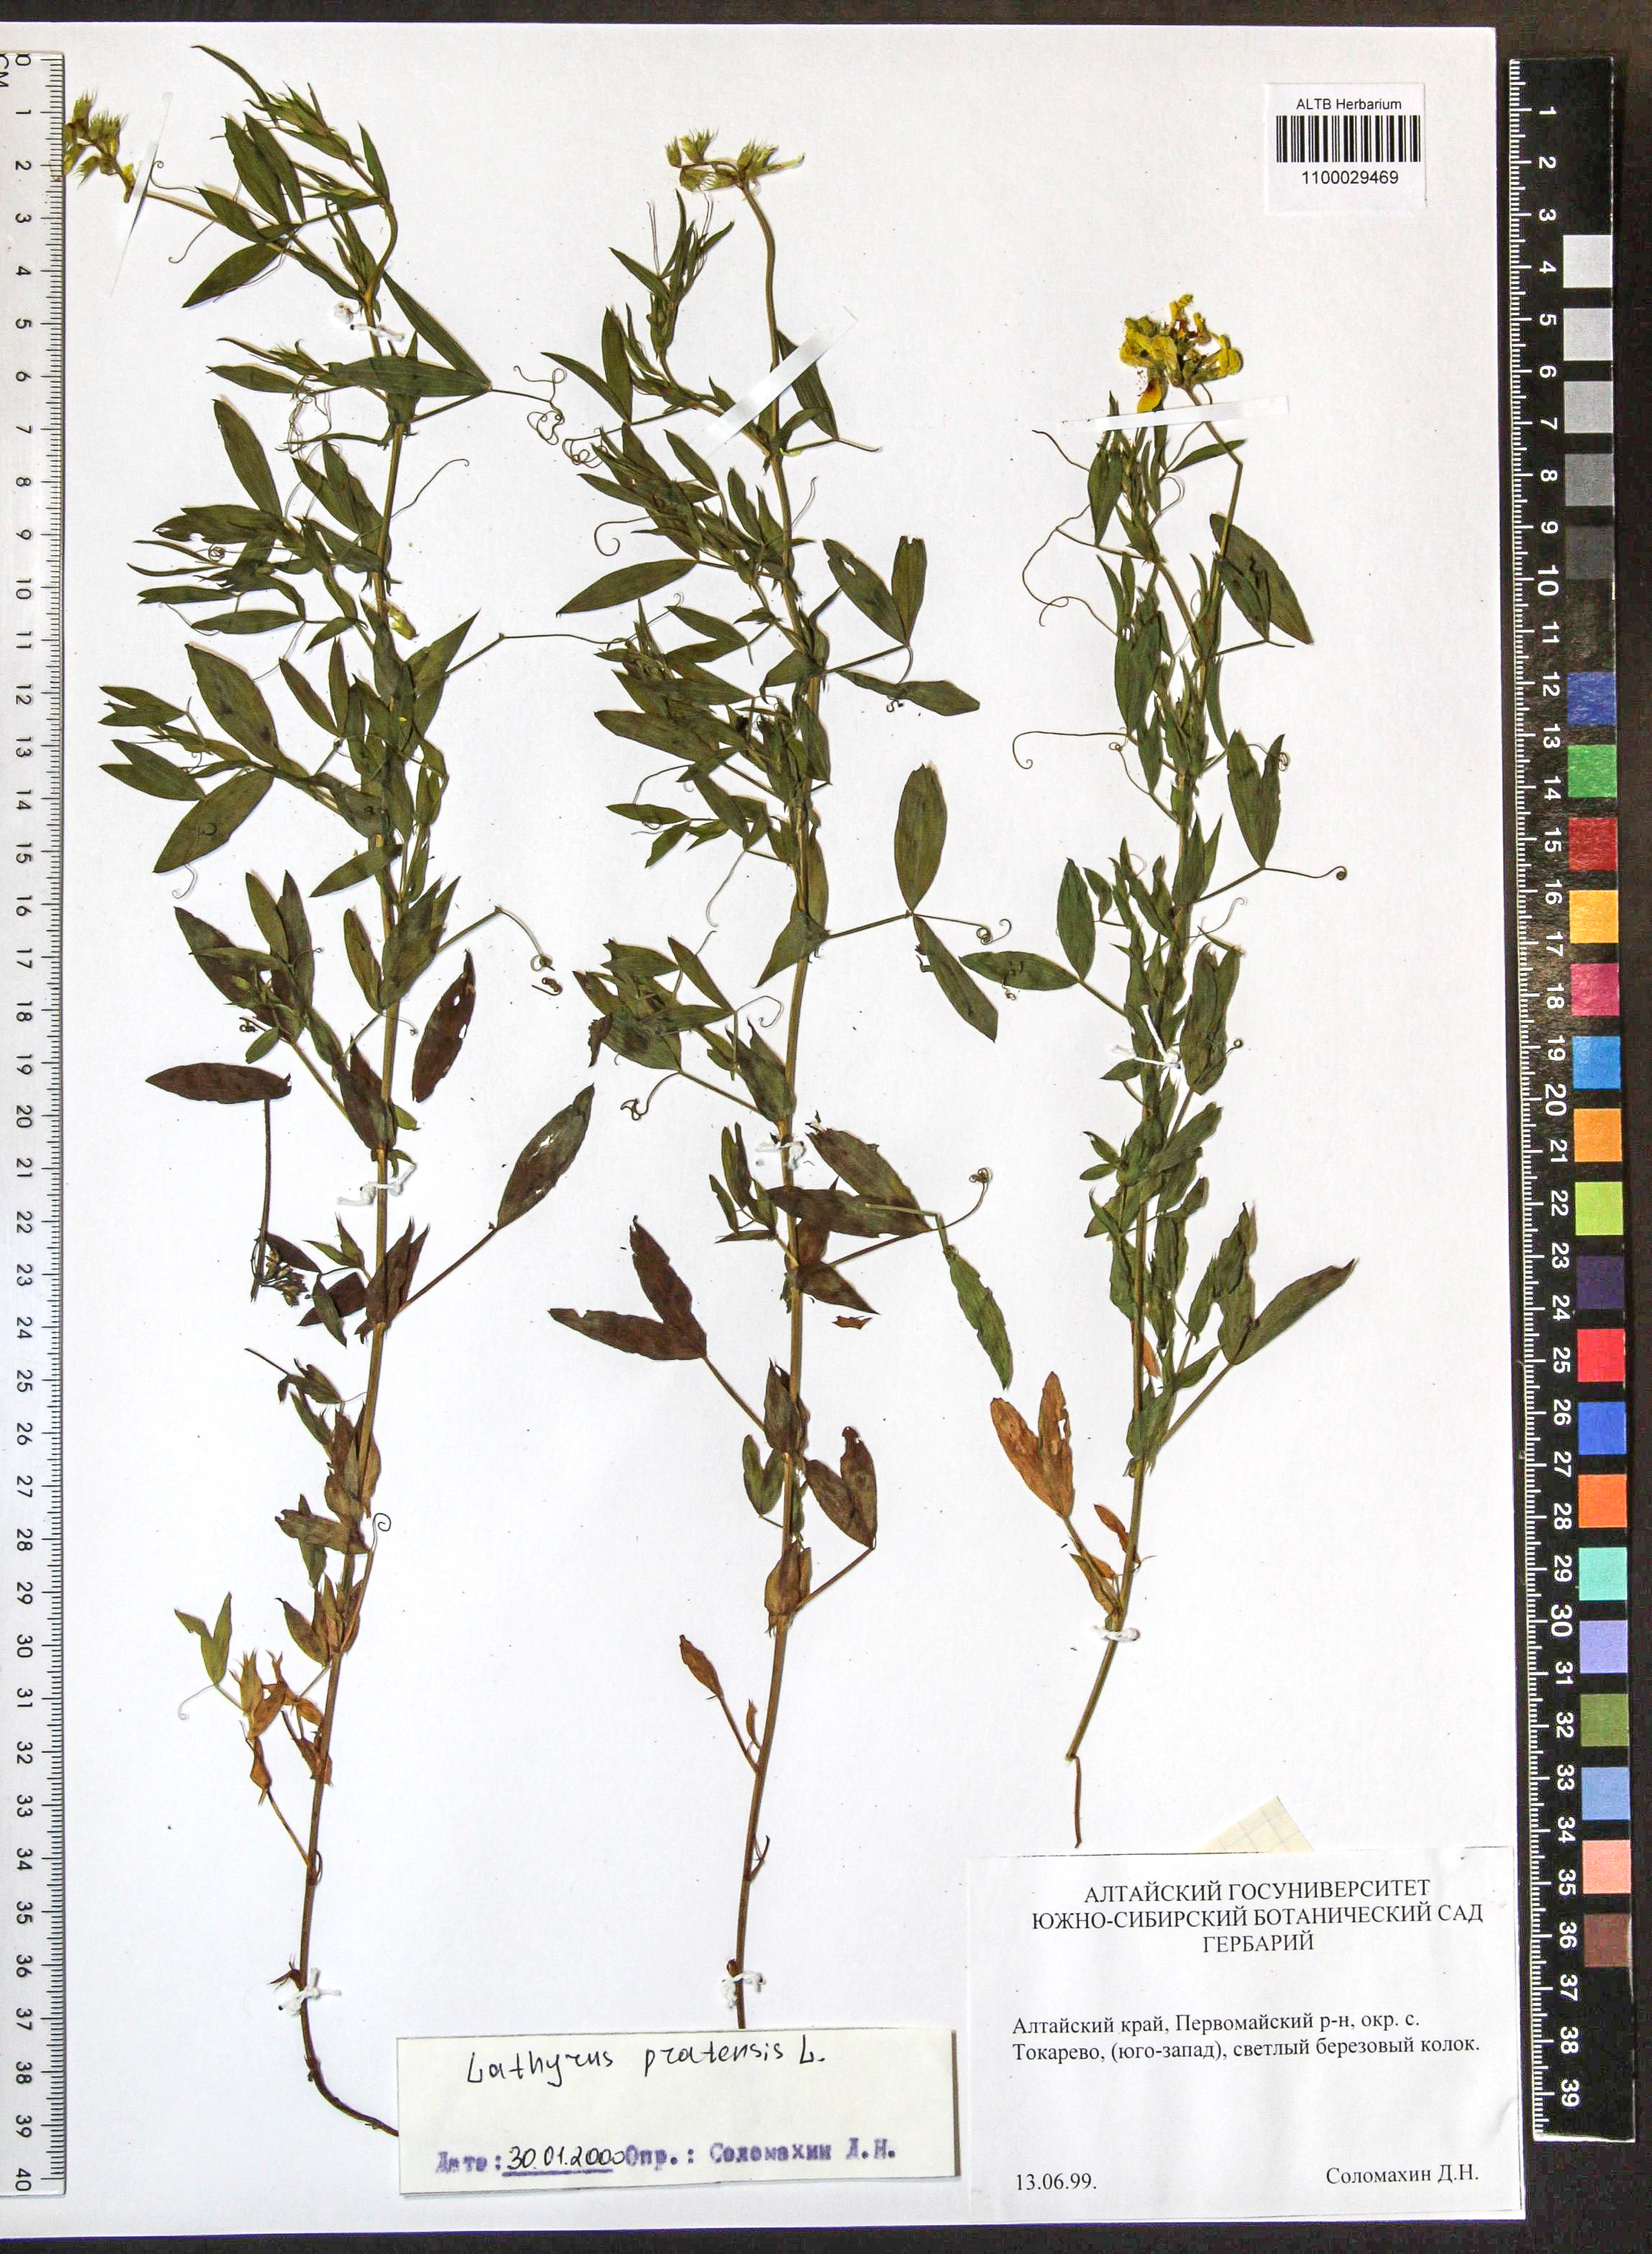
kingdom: Plantae
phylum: Tracheophyta
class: Magnoliopsida
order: Fabales
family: Fabaceae
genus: Lathyrus
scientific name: Lathyrus pratensis
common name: Meadow vetchling
